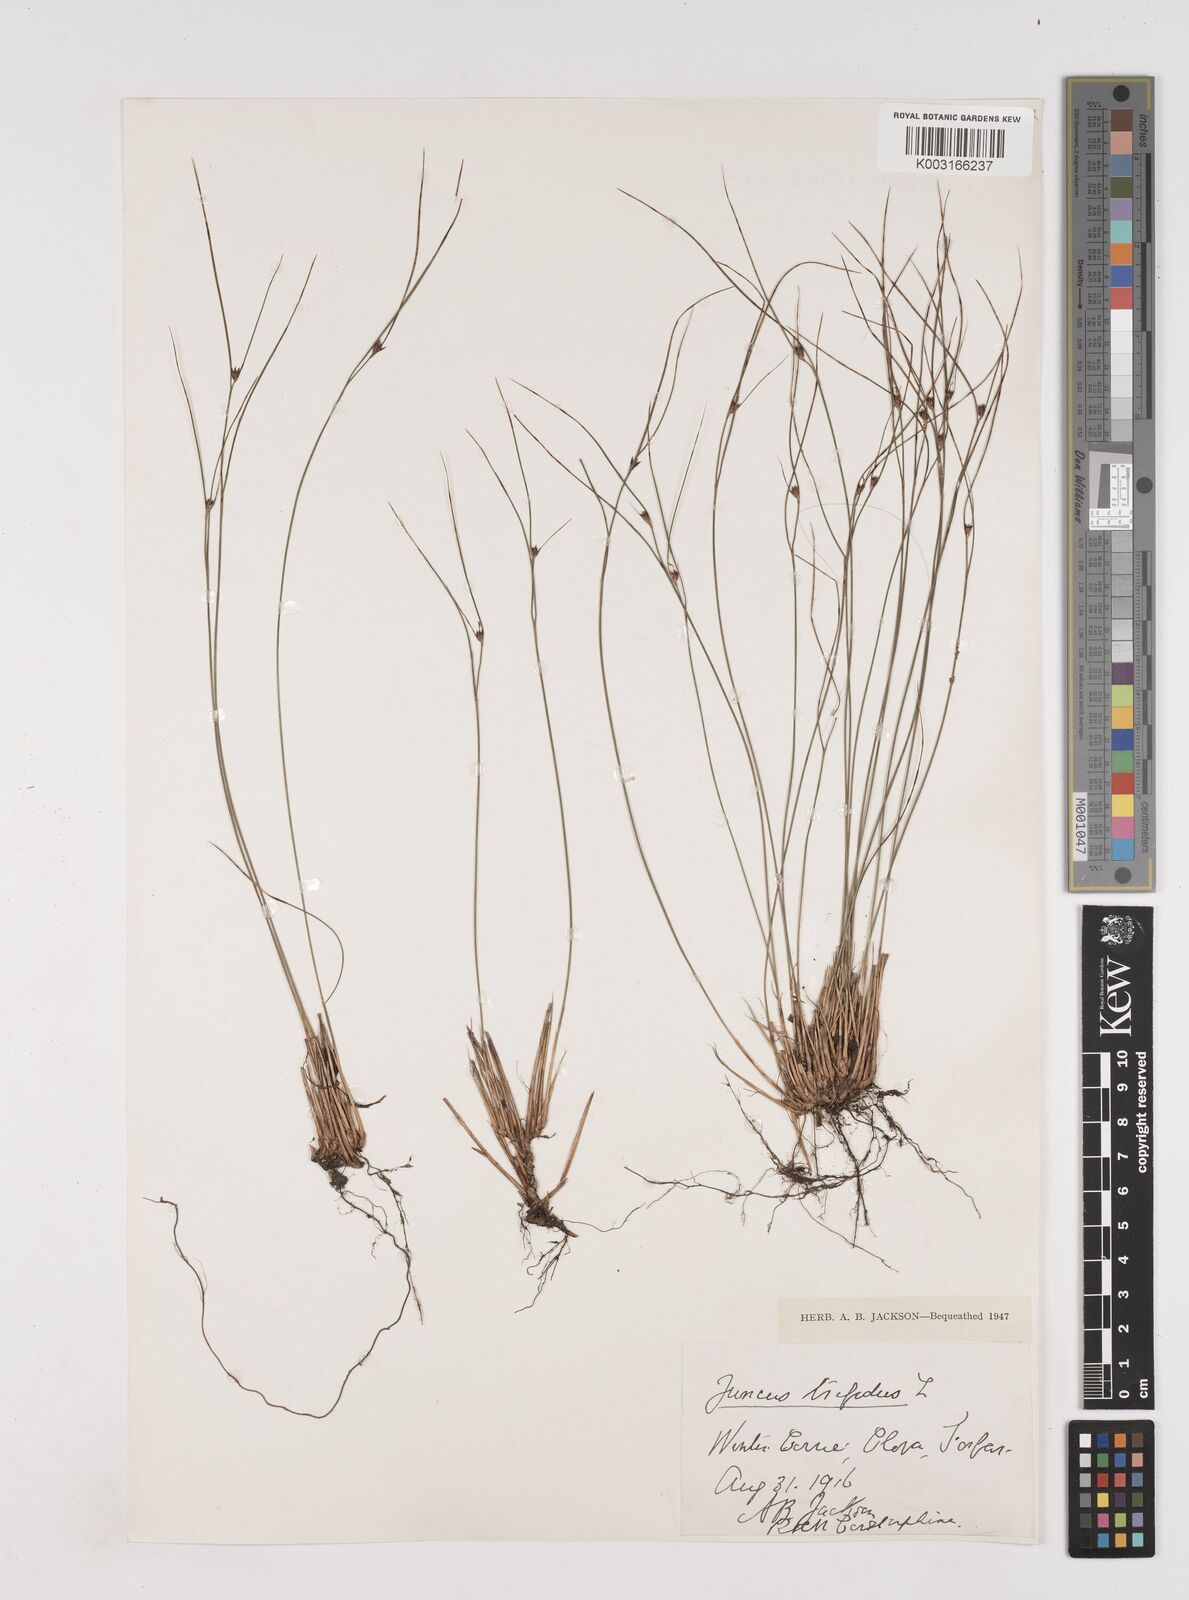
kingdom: Plantae
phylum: Tracheophyta
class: Liliopsida
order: Poales
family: Juncaceae
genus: Oreojuncus
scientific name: Oreojuncus trifidus
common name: Highland rush
